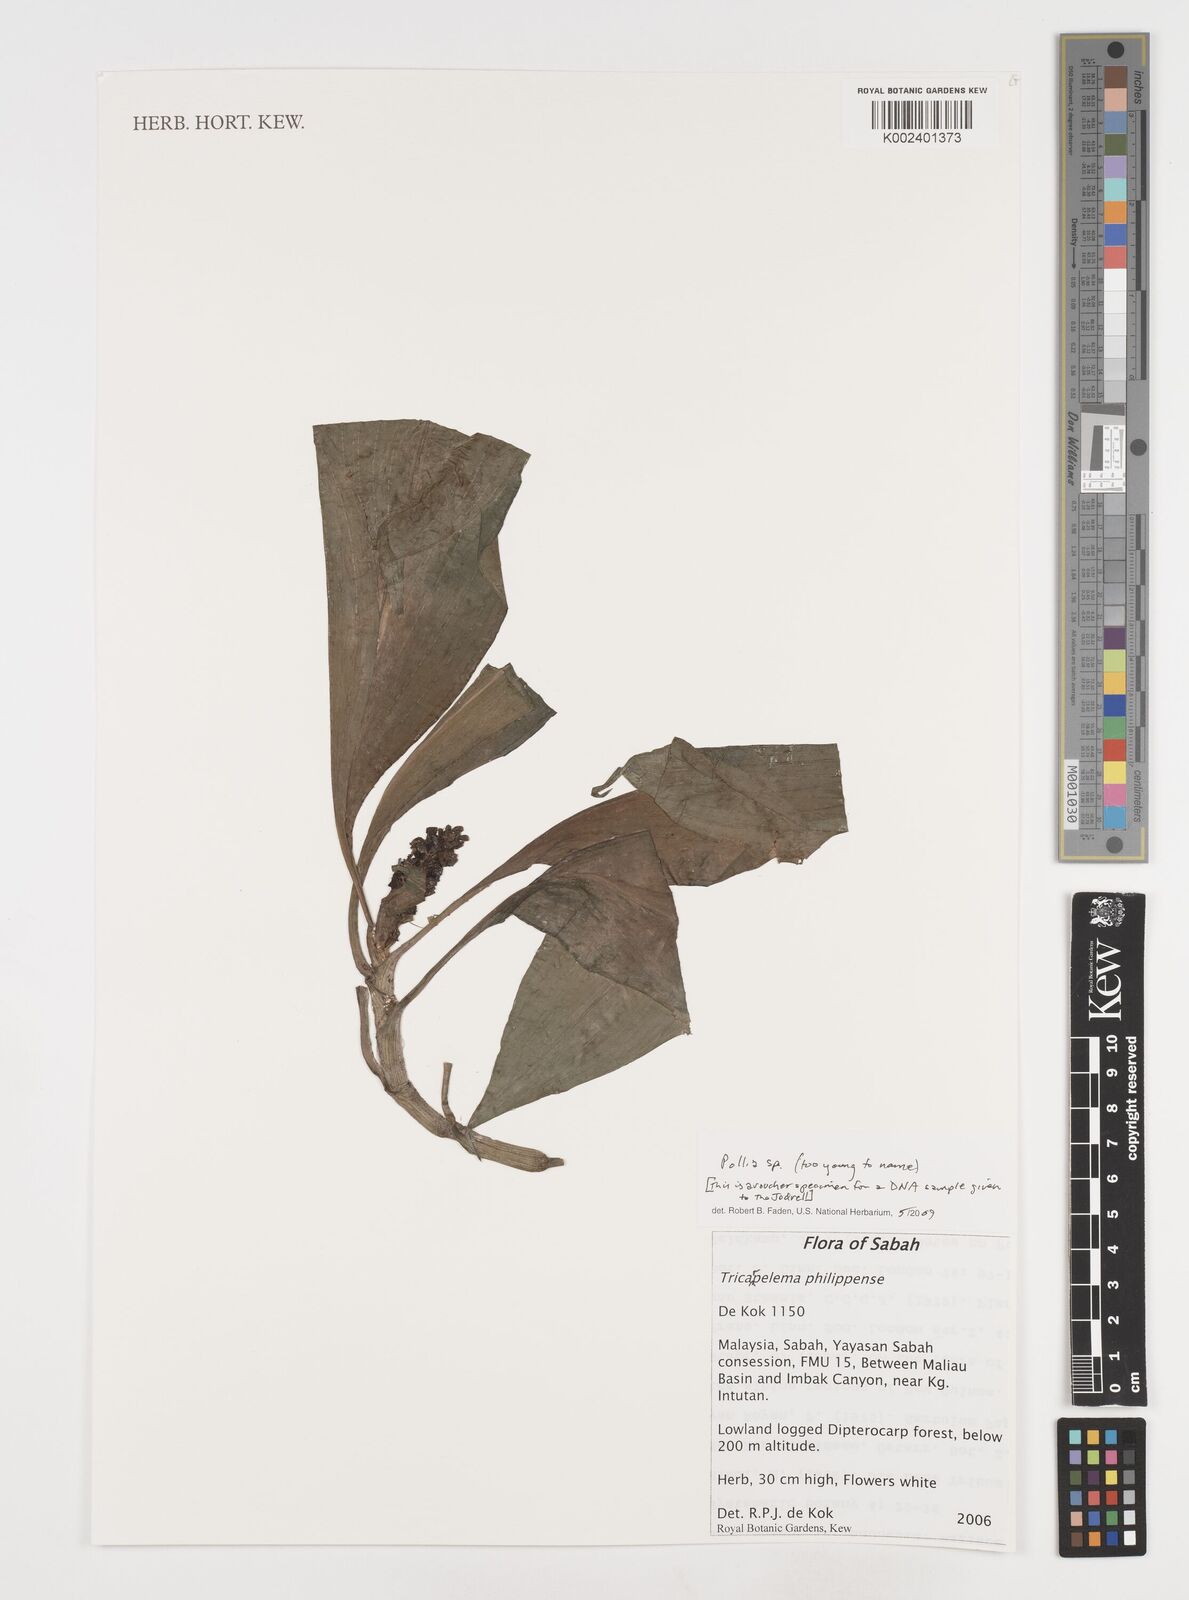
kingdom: Plantae
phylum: Tracheophyta
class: Liliopsida
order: Commelinales
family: Commelinaceae
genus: Pollia
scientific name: Pollia
